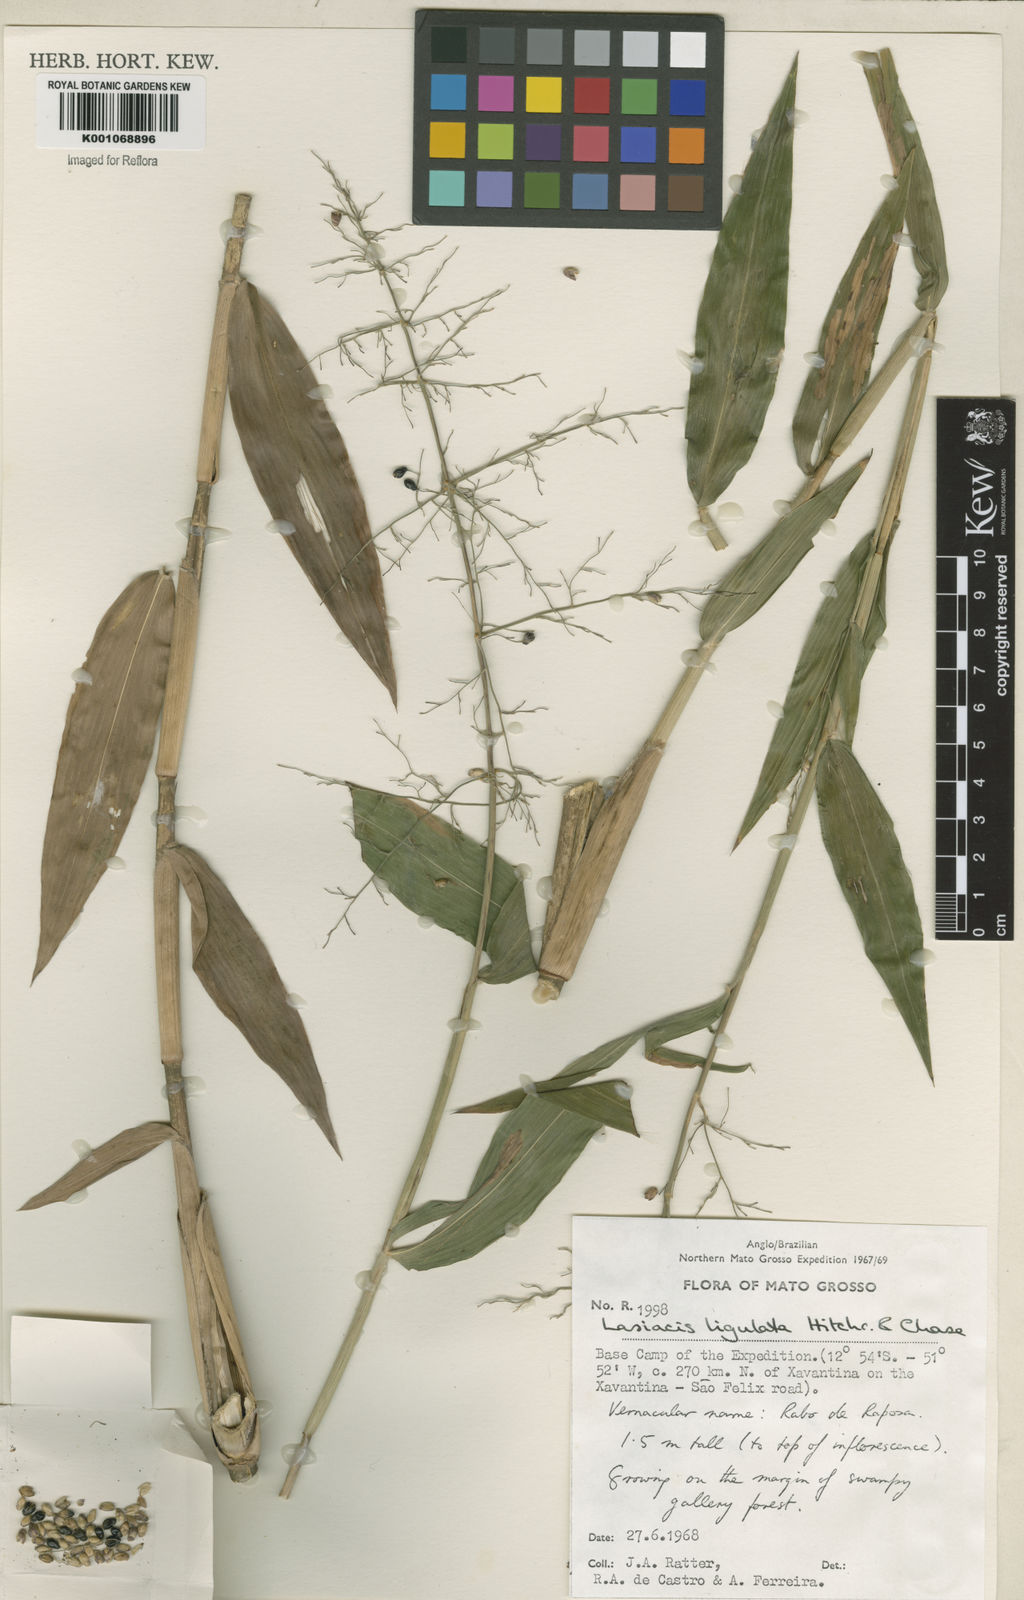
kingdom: Plantae
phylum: Tracheophyta
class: Liliopsida
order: Poales
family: Poaceae
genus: Lasiacis
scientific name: Lasiacis ligulata
